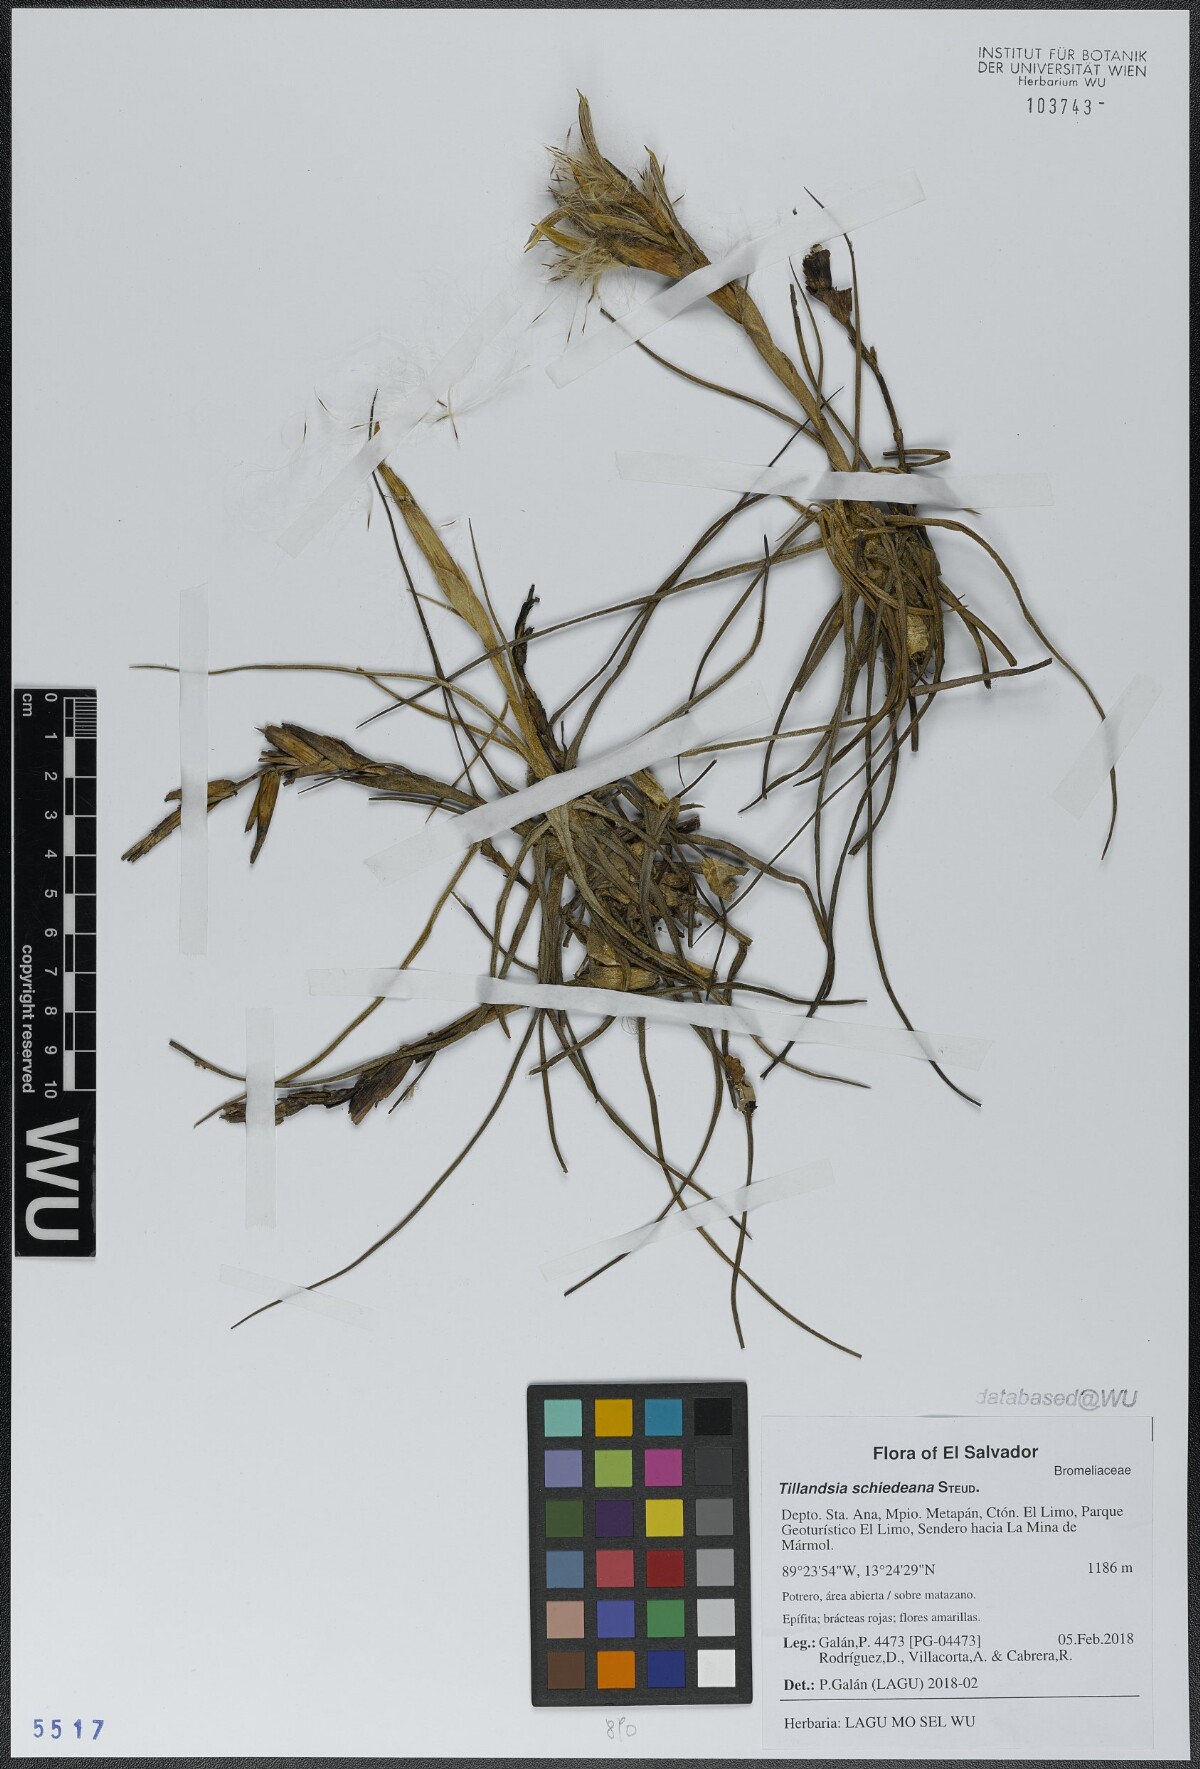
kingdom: Plantae
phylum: Tracheophyta
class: Liliopsida
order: Poales
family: Bromeliaceae
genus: Tillandsia
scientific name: Tillandsia schiedeana
